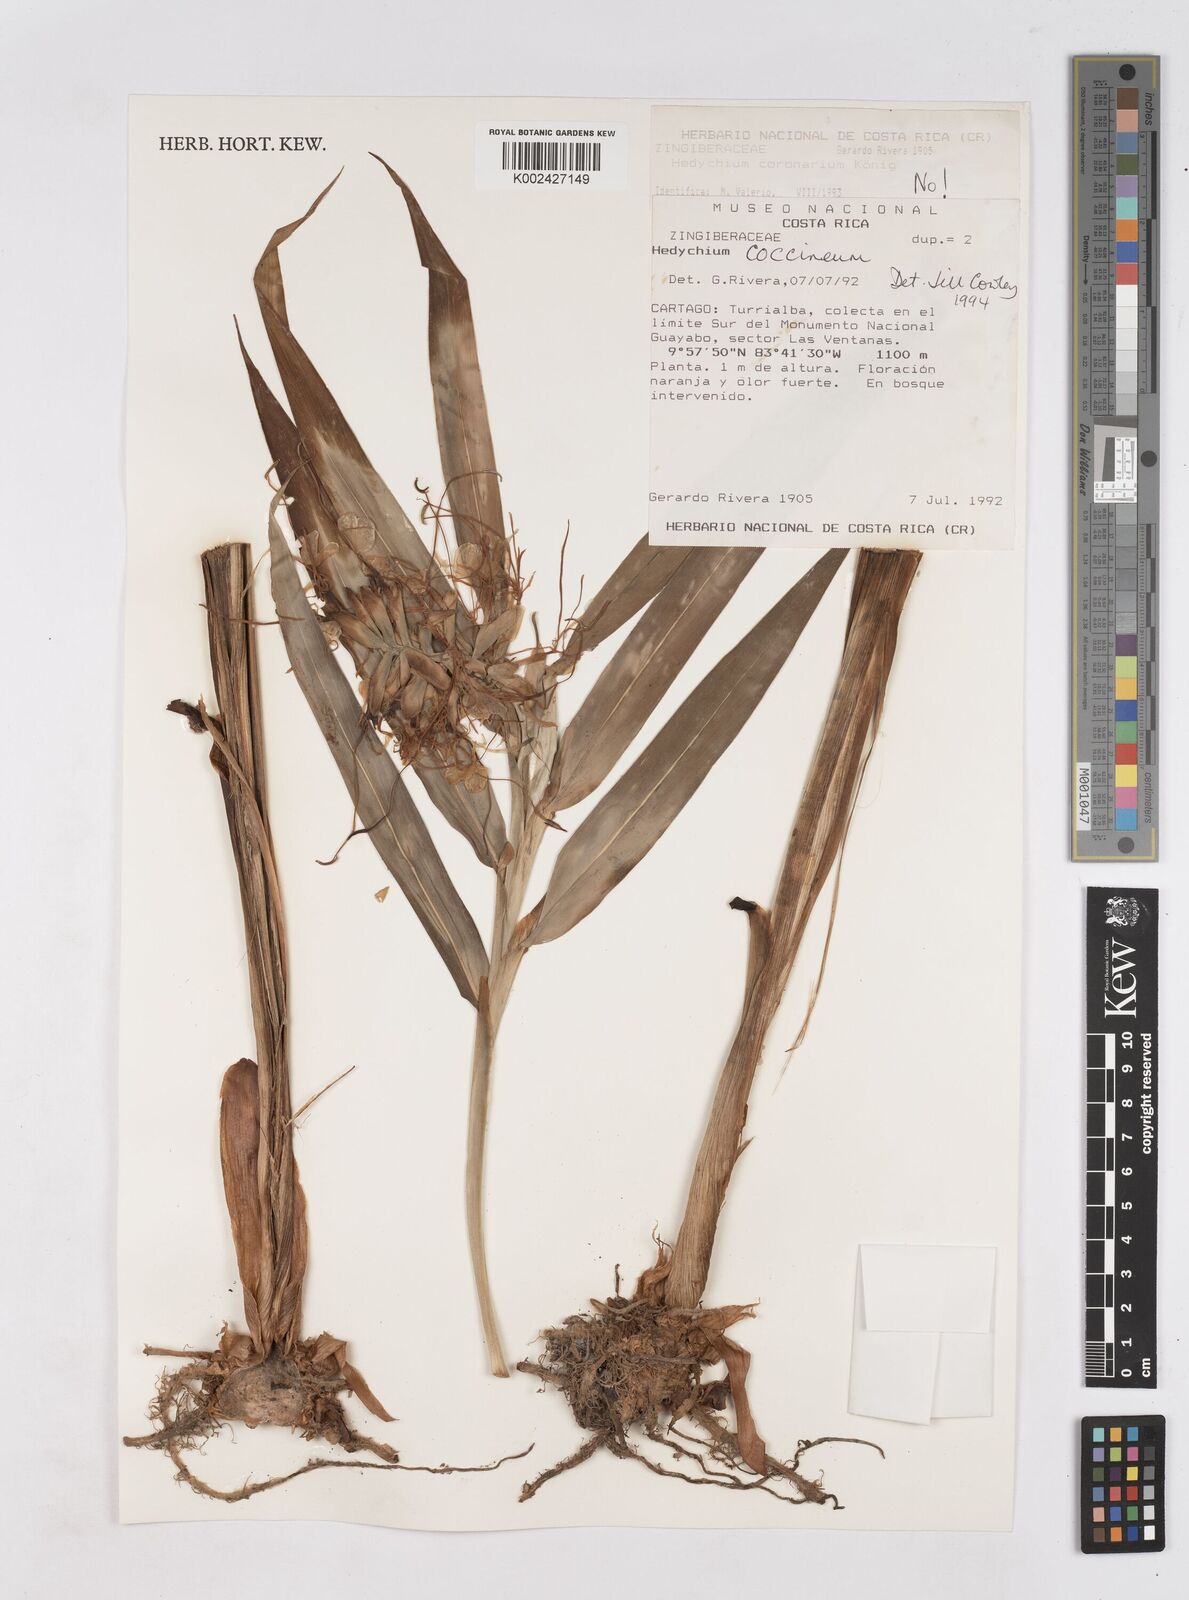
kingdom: Plantae
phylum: Tracheophyta
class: Liliopsida
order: Zingiberales
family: Zingiberaceae
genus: Hedychium
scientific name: Hedychium coccineum
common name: Red ginger-lily
